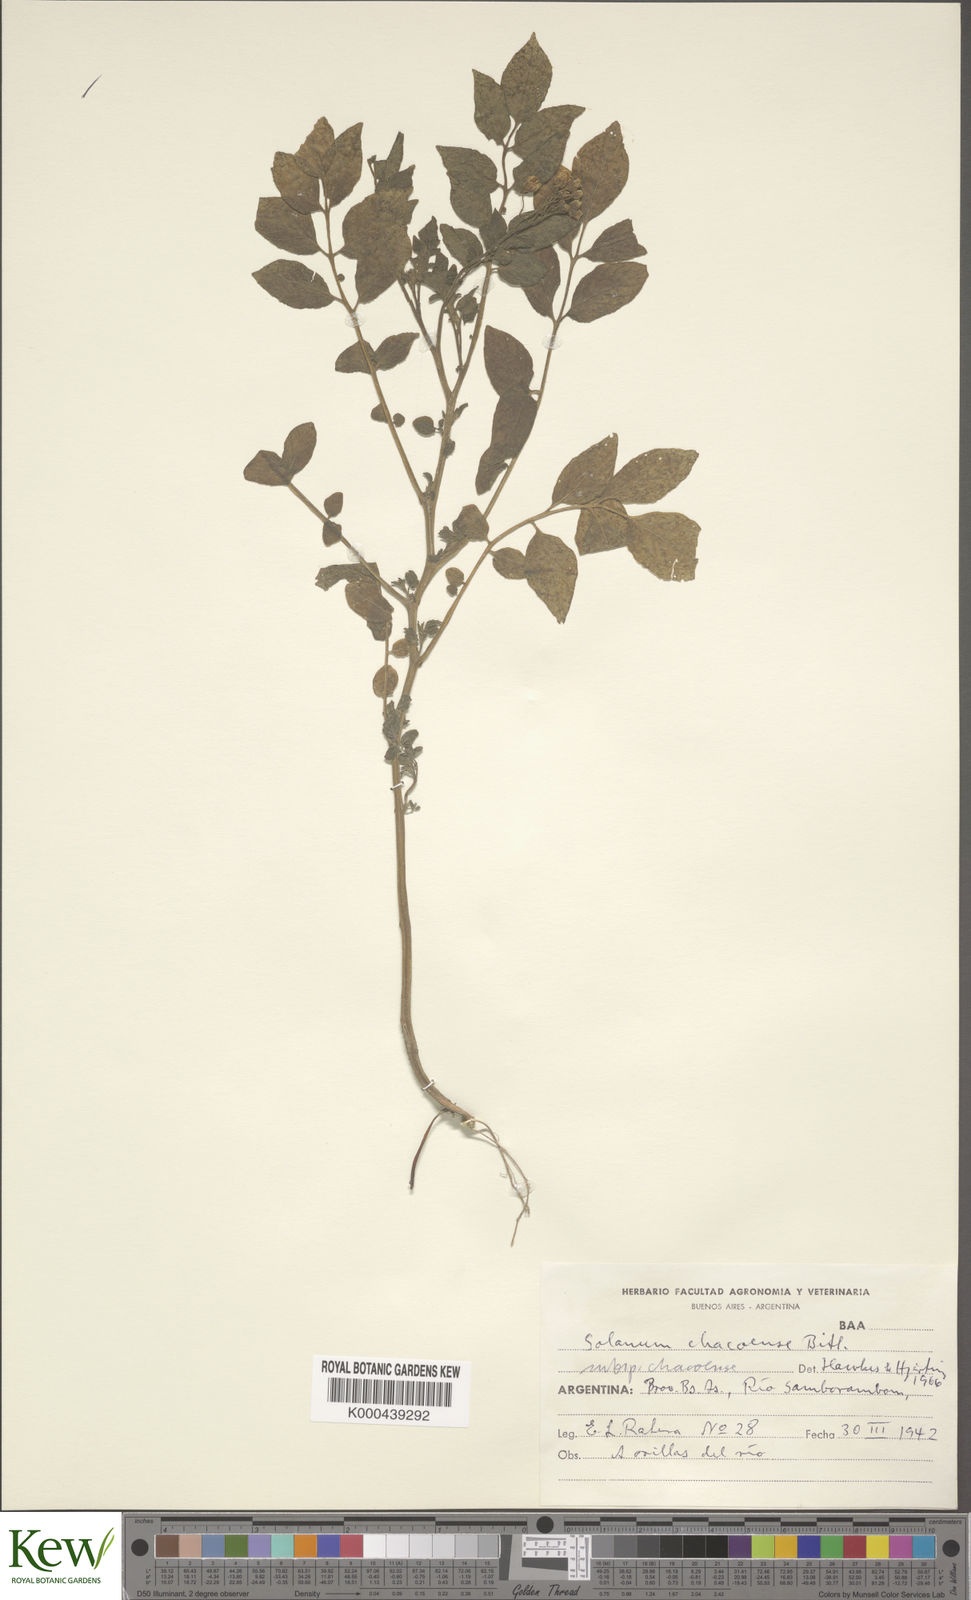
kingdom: Plantae
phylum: Tracheophyta
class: Magnoliopsida
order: Solanales
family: Solanaceae
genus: Solanum
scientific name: Solanum chacoense
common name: Chaco potato
